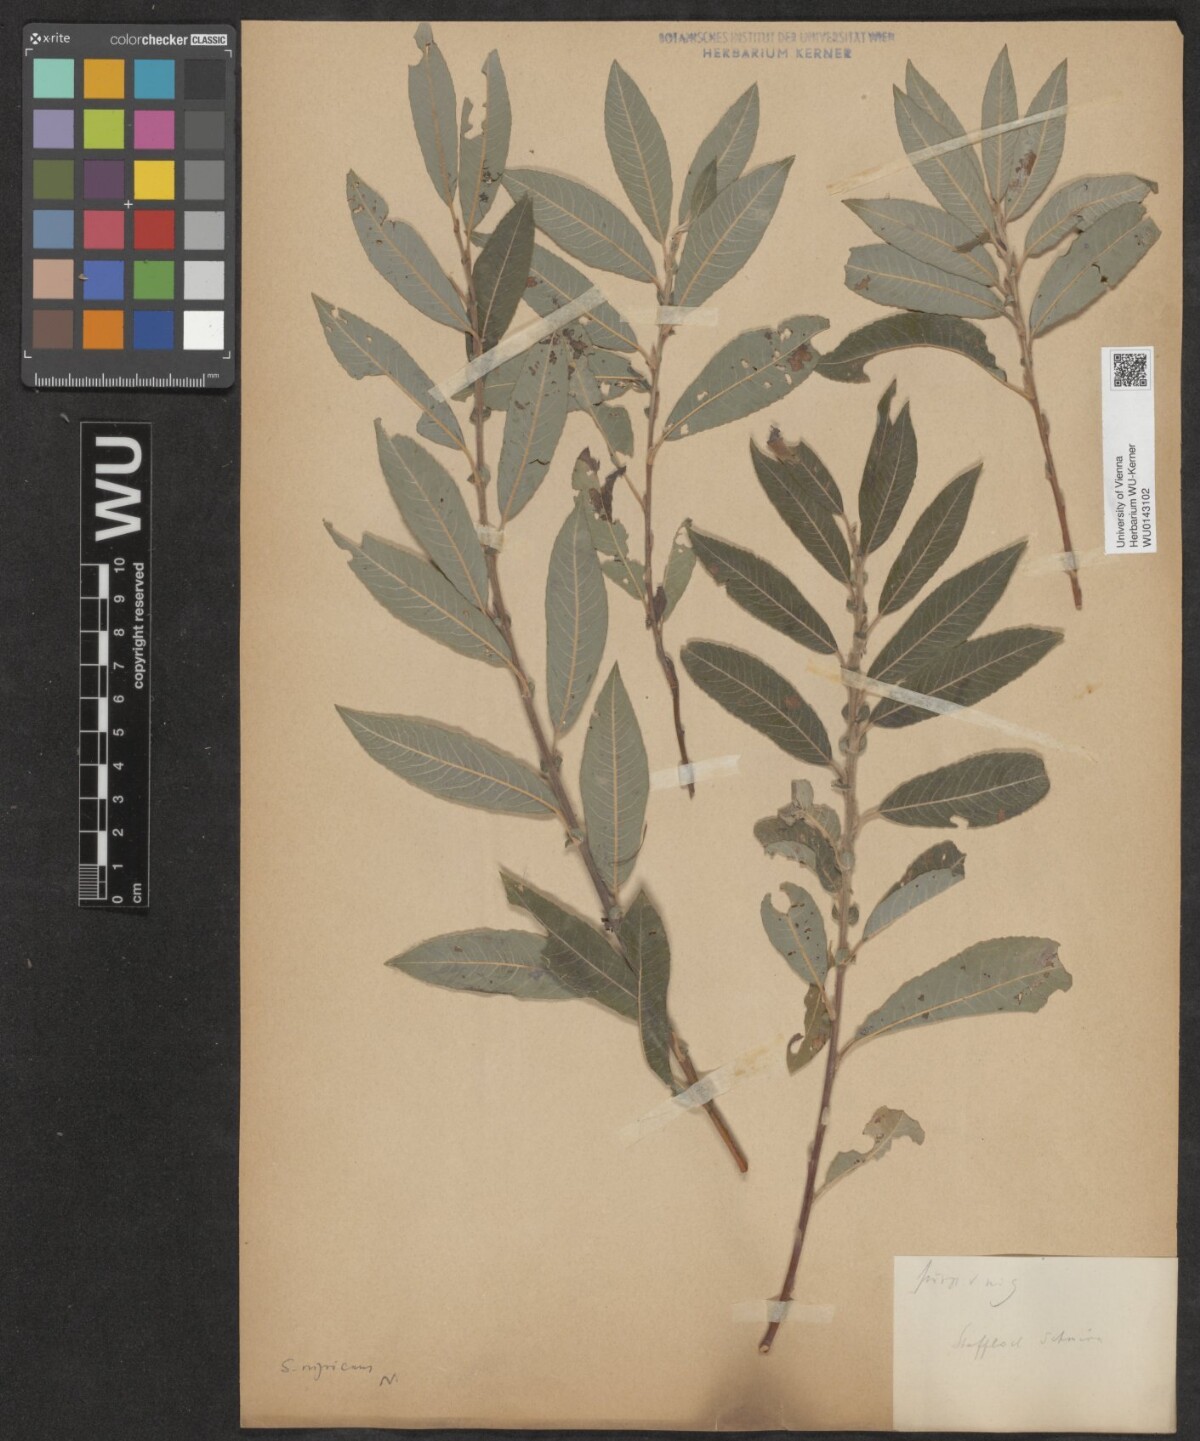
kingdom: Plantae
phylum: Tracheophyta
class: Magnoliopsida
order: Malpighiales
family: Salicaceae
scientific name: Salicaceae
